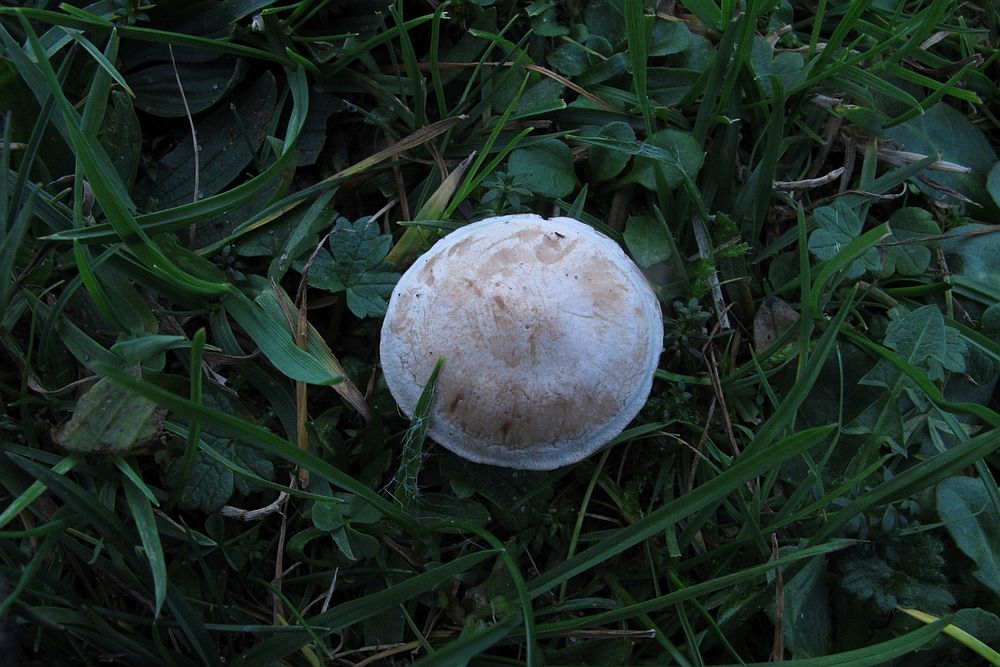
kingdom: Fungi
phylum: Basidiomycota
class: Agaricomycetes
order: Agaricales
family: Tricholomataceae
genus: Clitocybe
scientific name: Clitocybe rivulosa
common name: eng-tragthat
